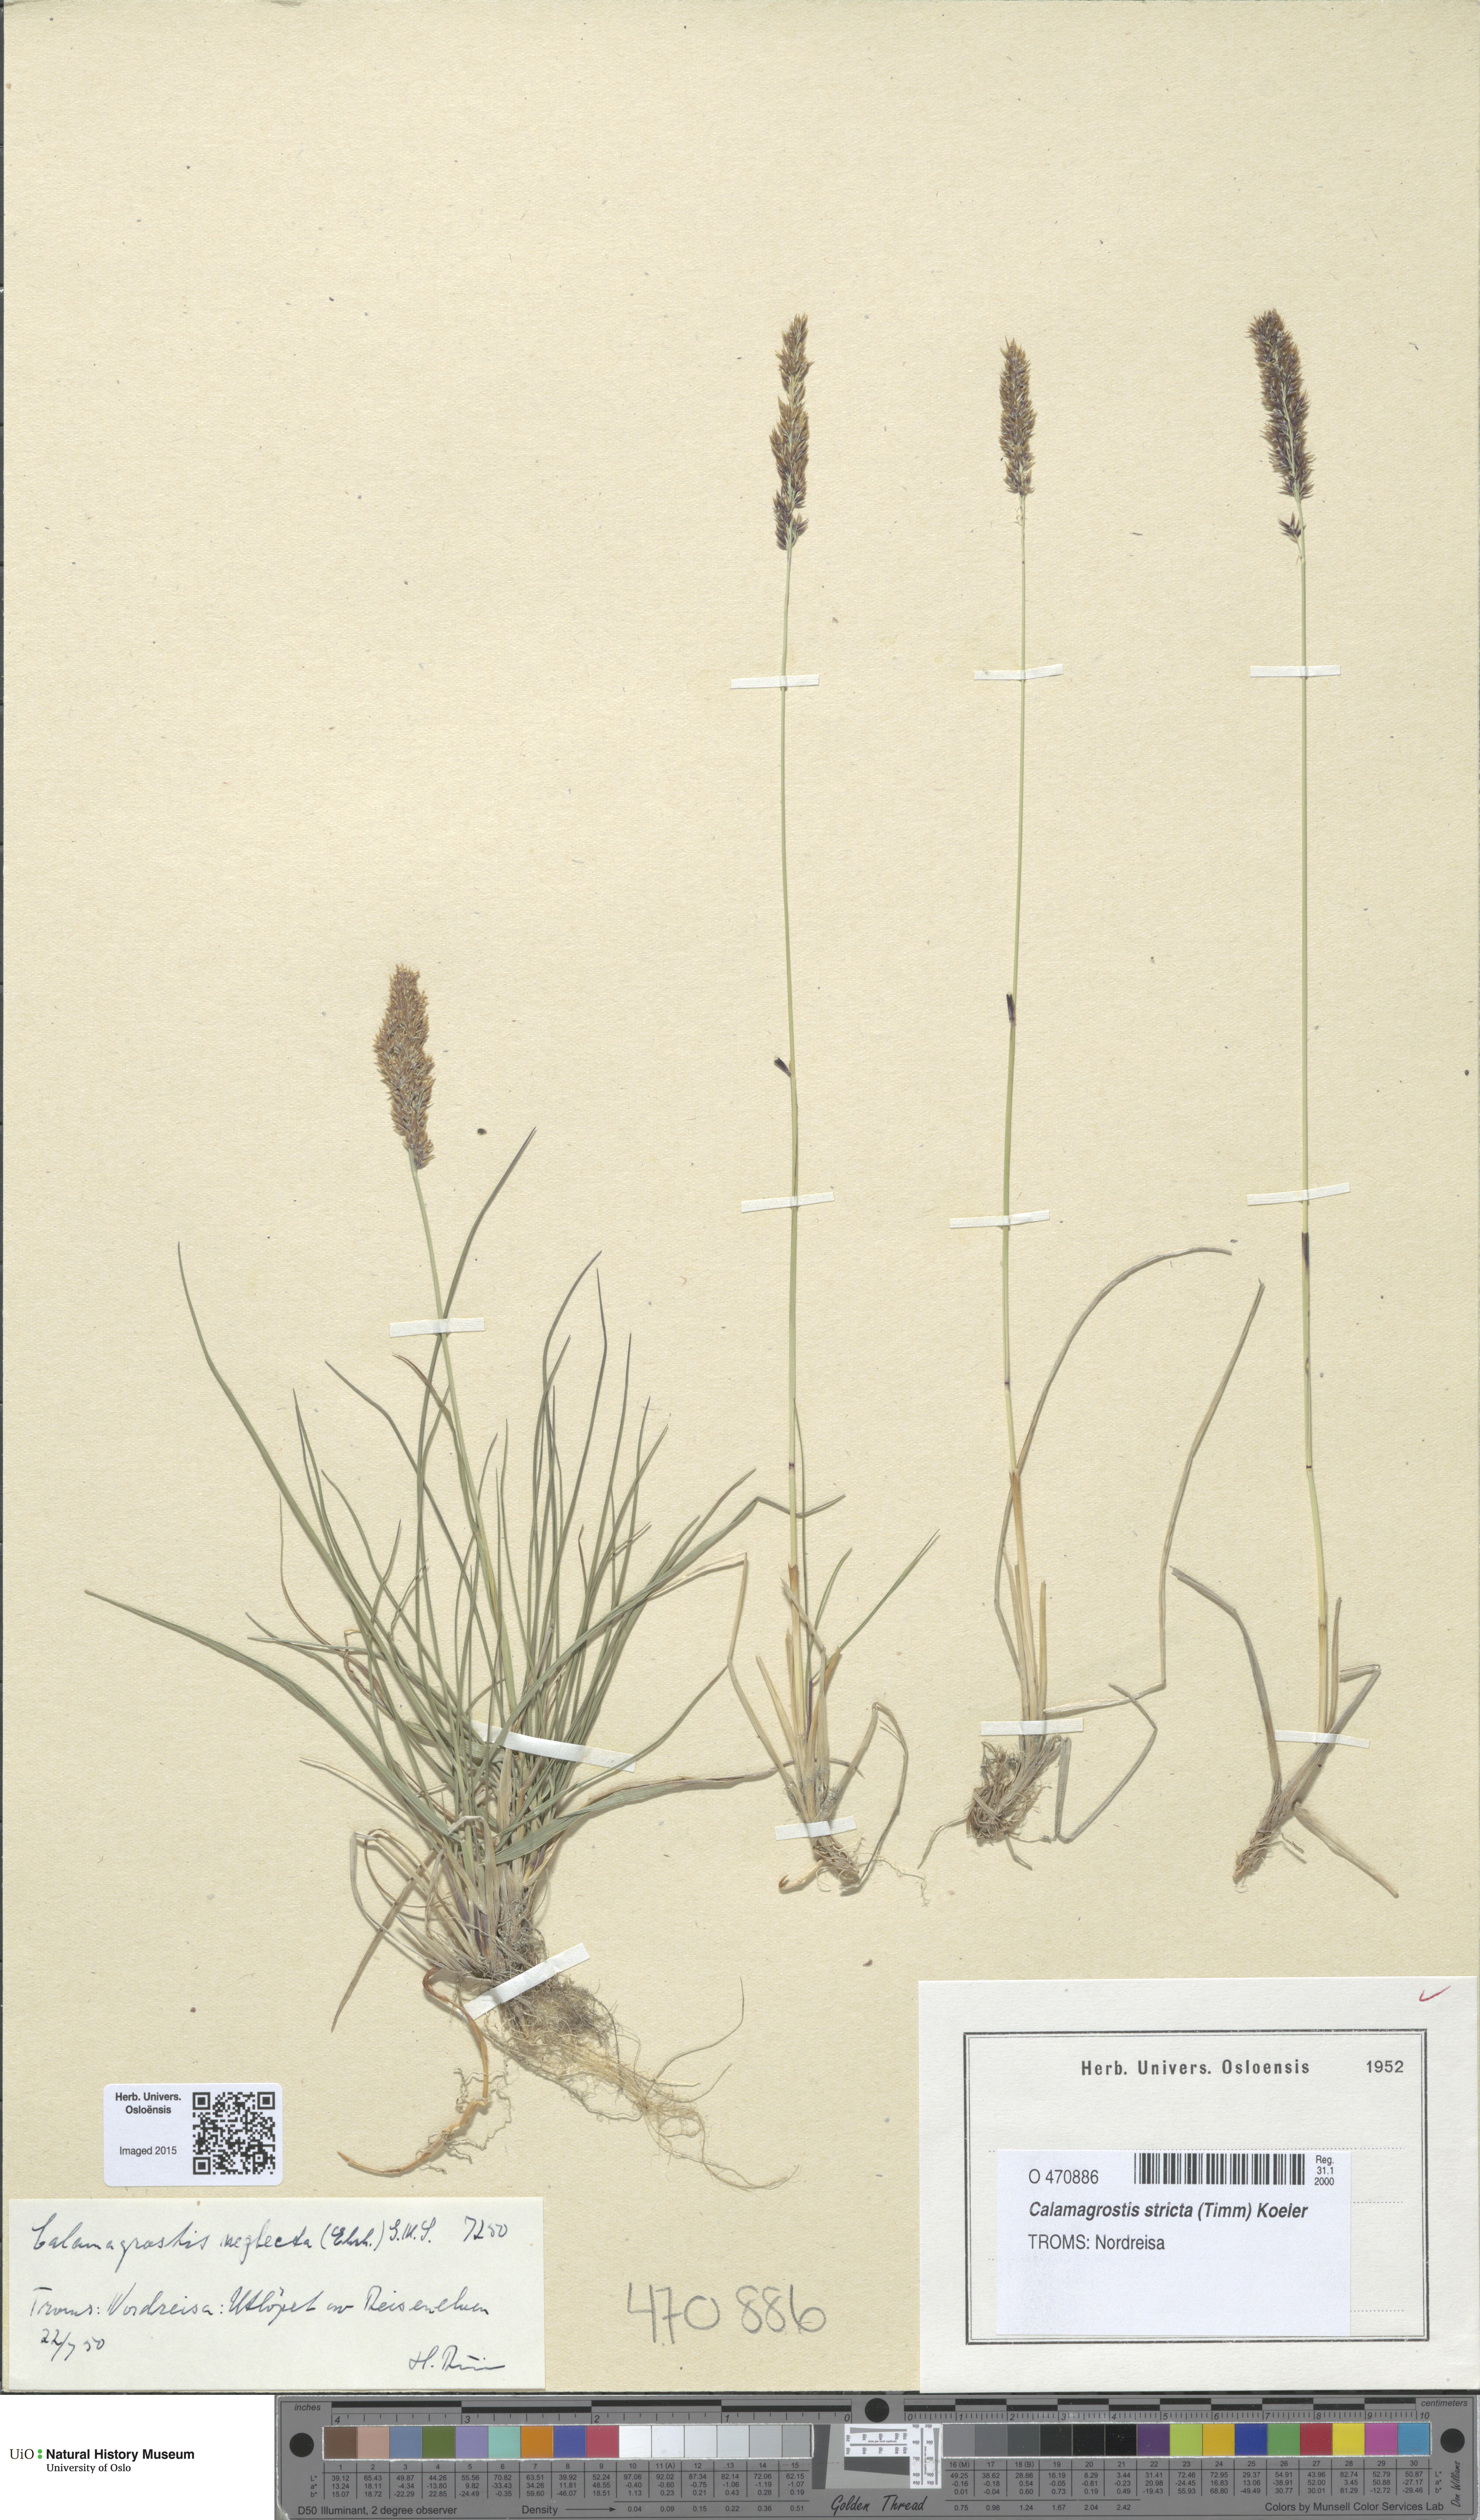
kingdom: Plantae
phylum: Tracheophyta
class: Liliopsida
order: Poales
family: Poaceae
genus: Achnatherum
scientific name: Achnatherum calamagrostis
